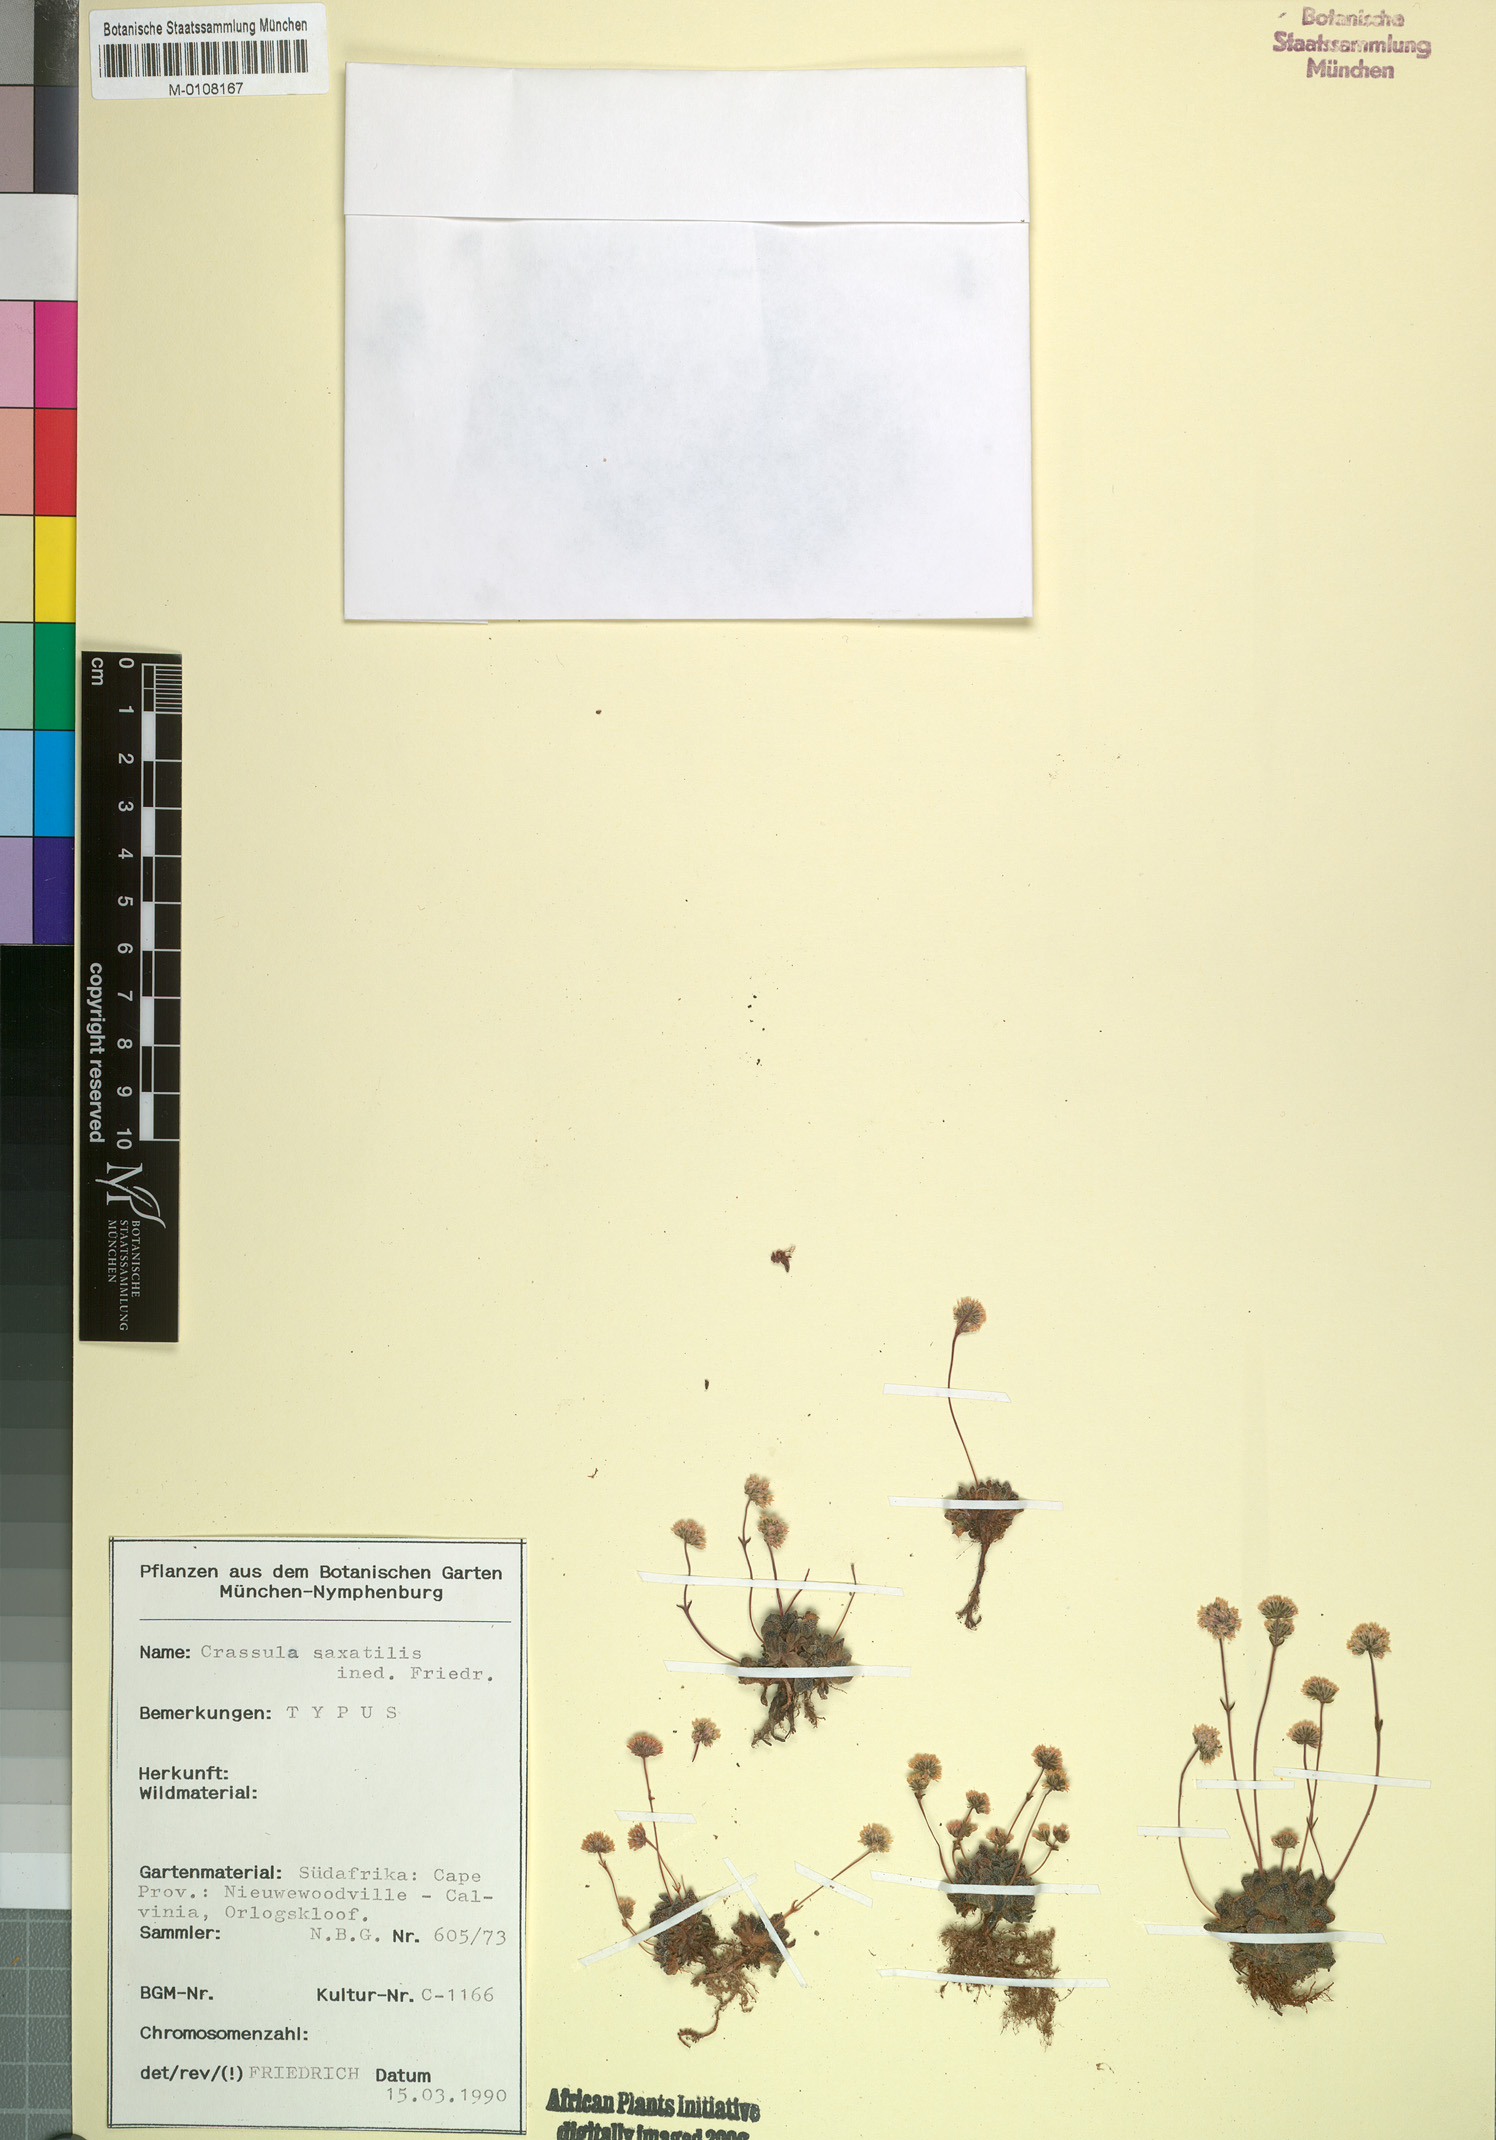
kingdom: Plantae
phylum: Tracheophyta
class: Magnoliopsida
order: Saxifragales
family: Crassulaceae
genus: Crassula
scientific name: Crassula
